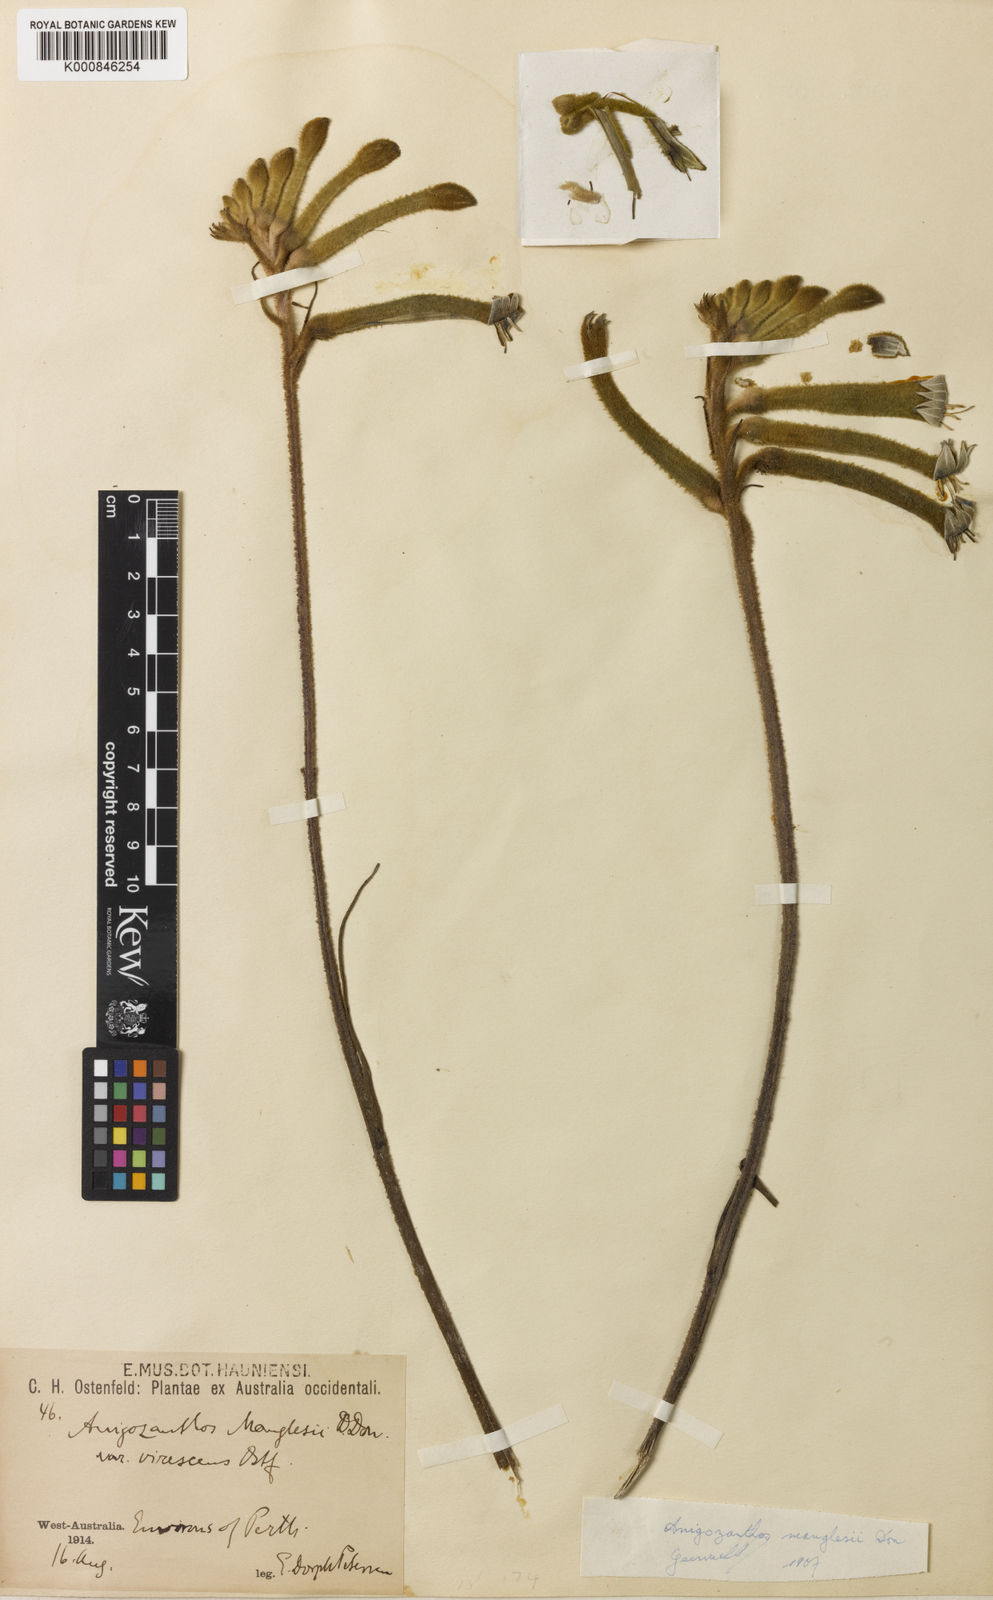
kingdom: Plantae
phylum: Tracheophyta
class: Liliopsida
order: Commelinales
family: Haemodoraceae
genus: Anigozanthos
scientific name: Anigozanthos manglesii
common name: Mangles's kangaroo-paw
